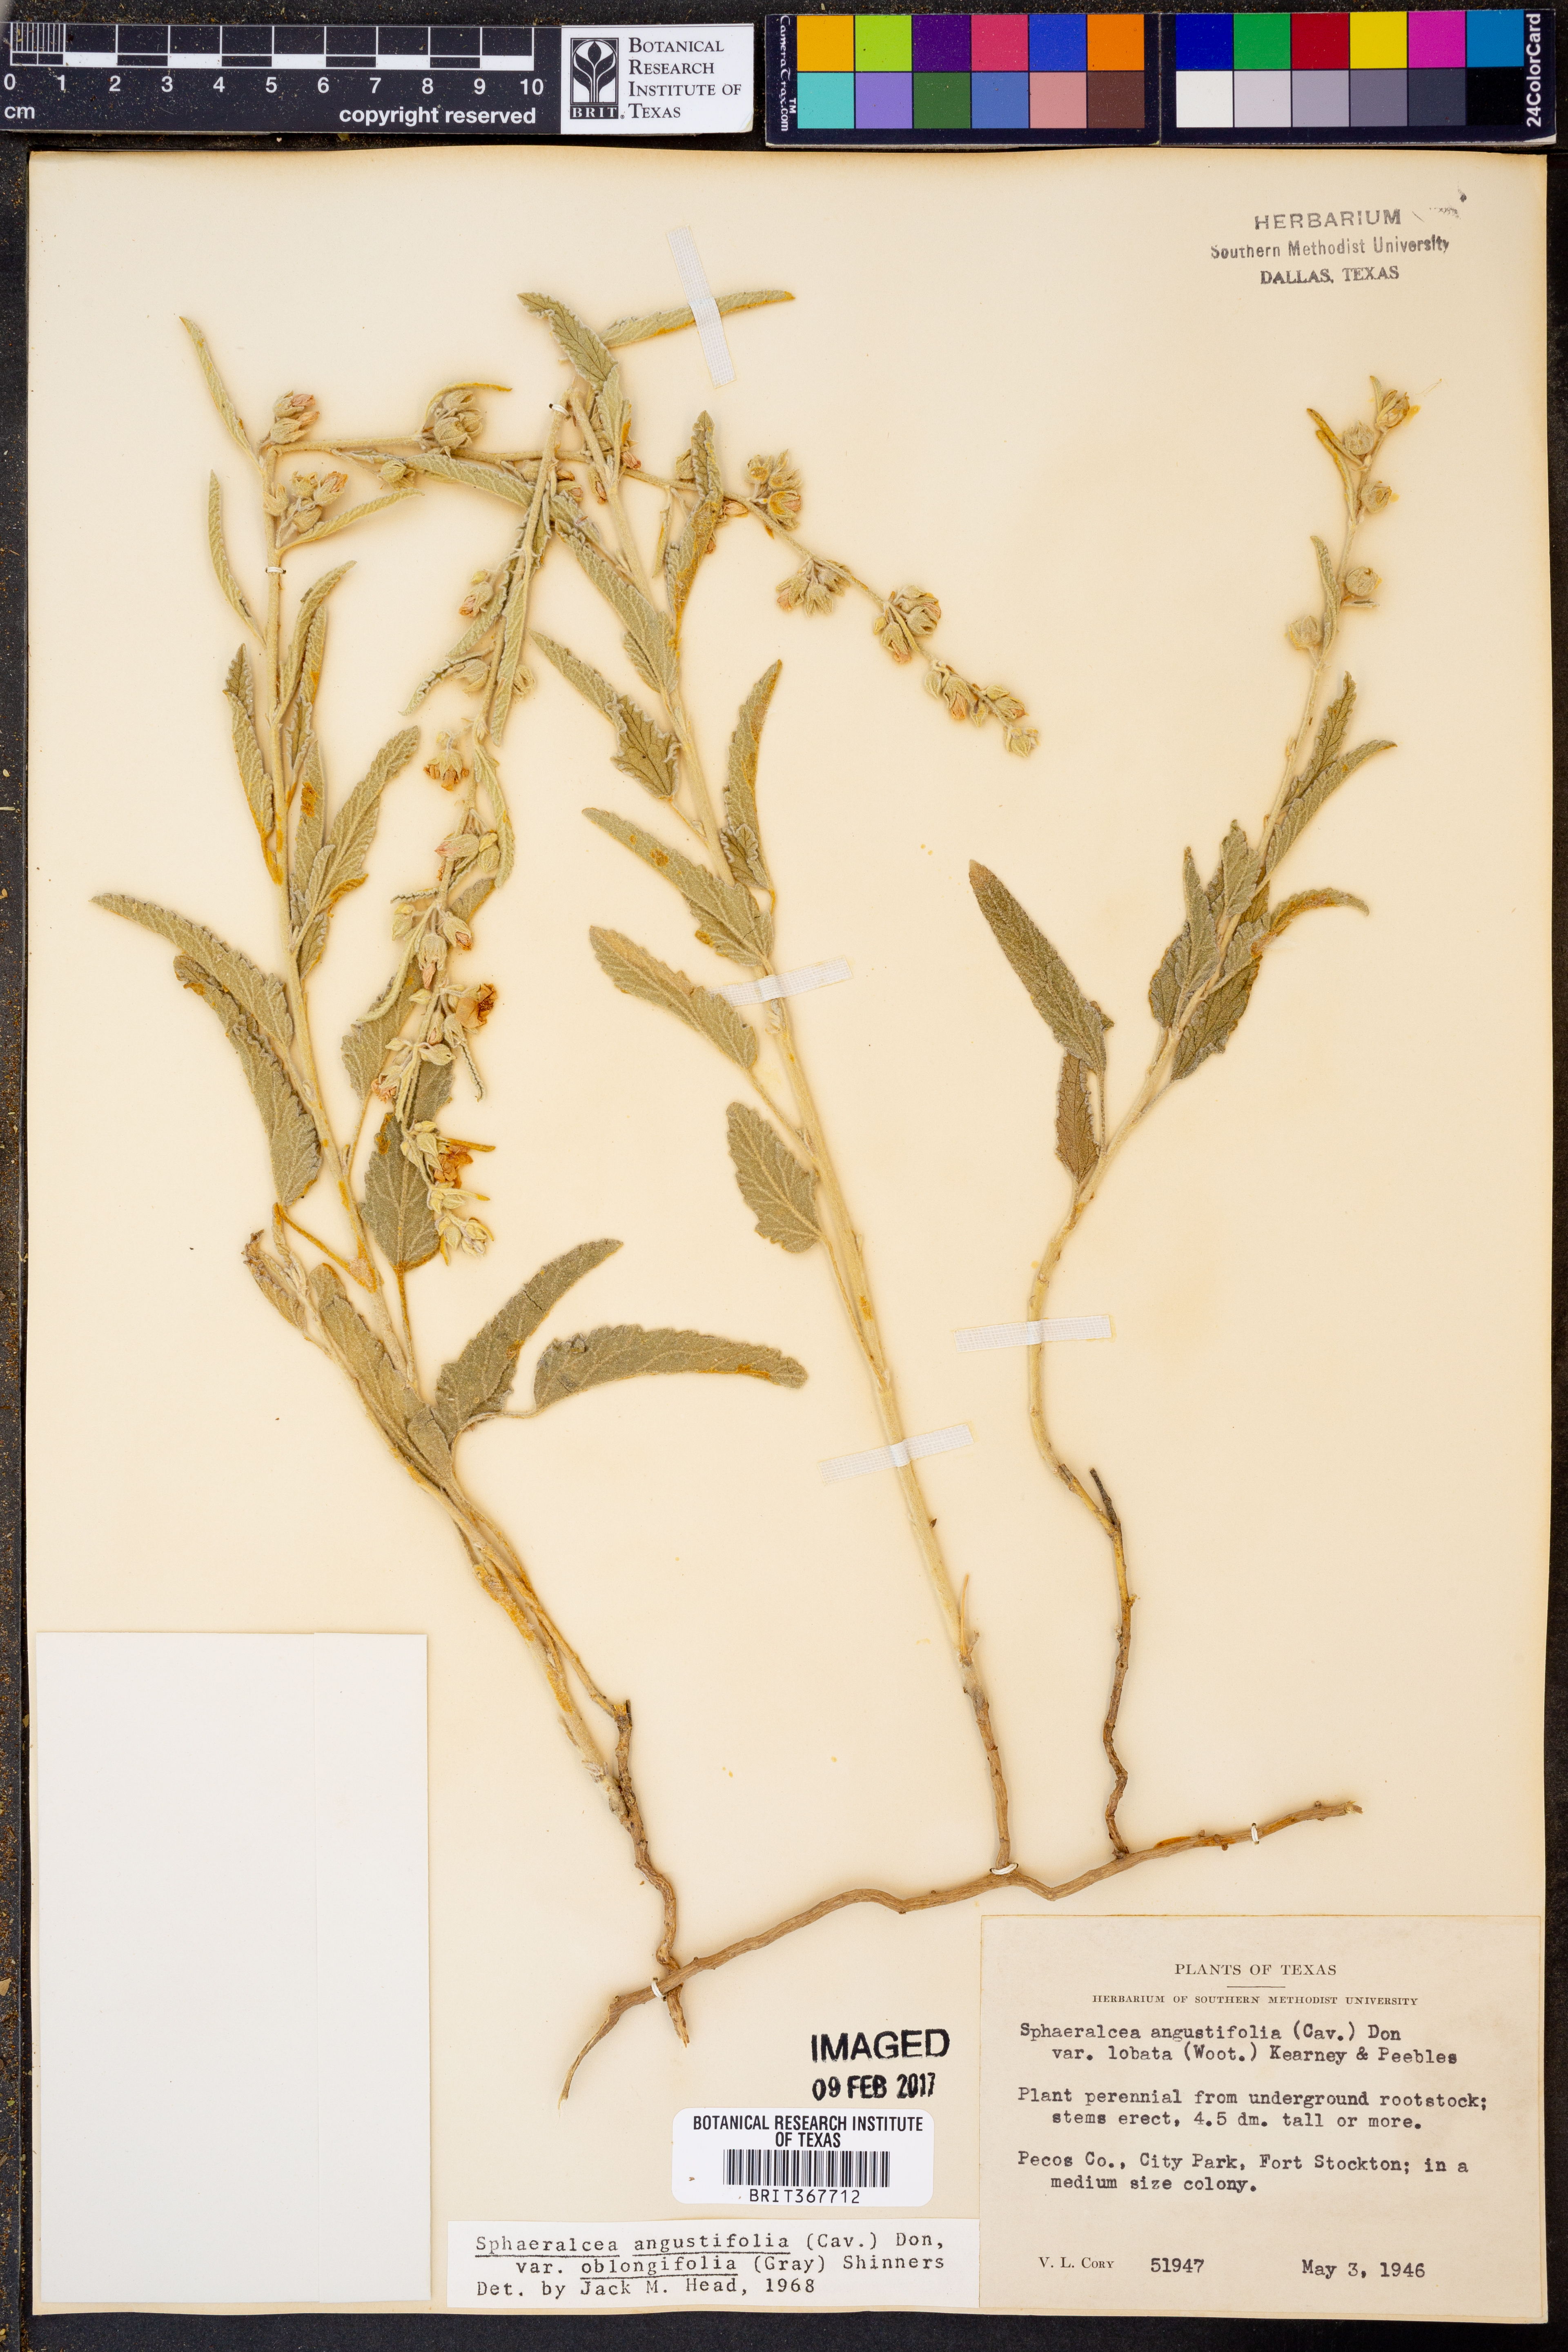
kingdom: Plantae
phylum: Tracheophyta
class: Magnoliopsida
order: Malvales
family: Malvaceae
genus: Sphaeralcea
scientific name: Sphaeralcea angustifolia
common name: Copper globe-mallow
